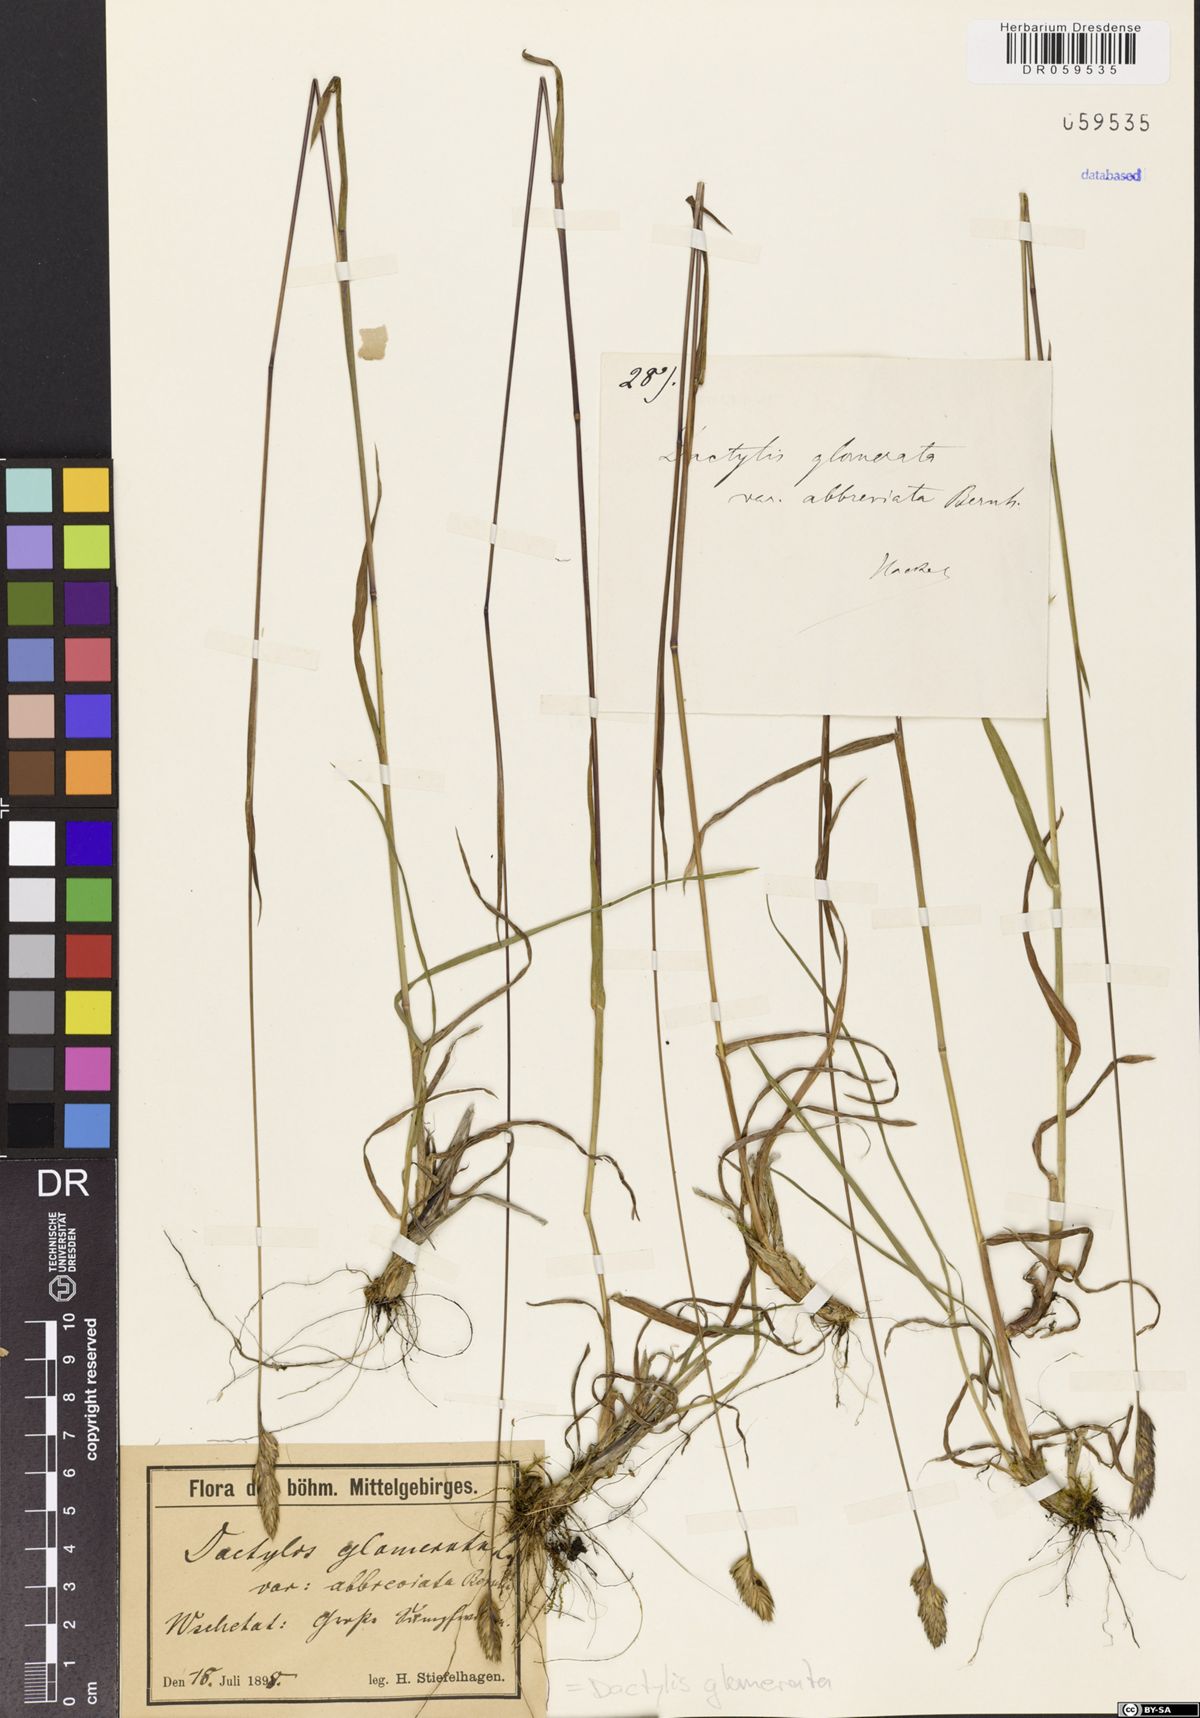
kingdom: Plantae
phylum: Tracheophyta
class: Liliopsida
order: Poales
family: Poaceae
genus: Dactylis
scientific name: Dactylis glomerata
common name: Orchardgrass
